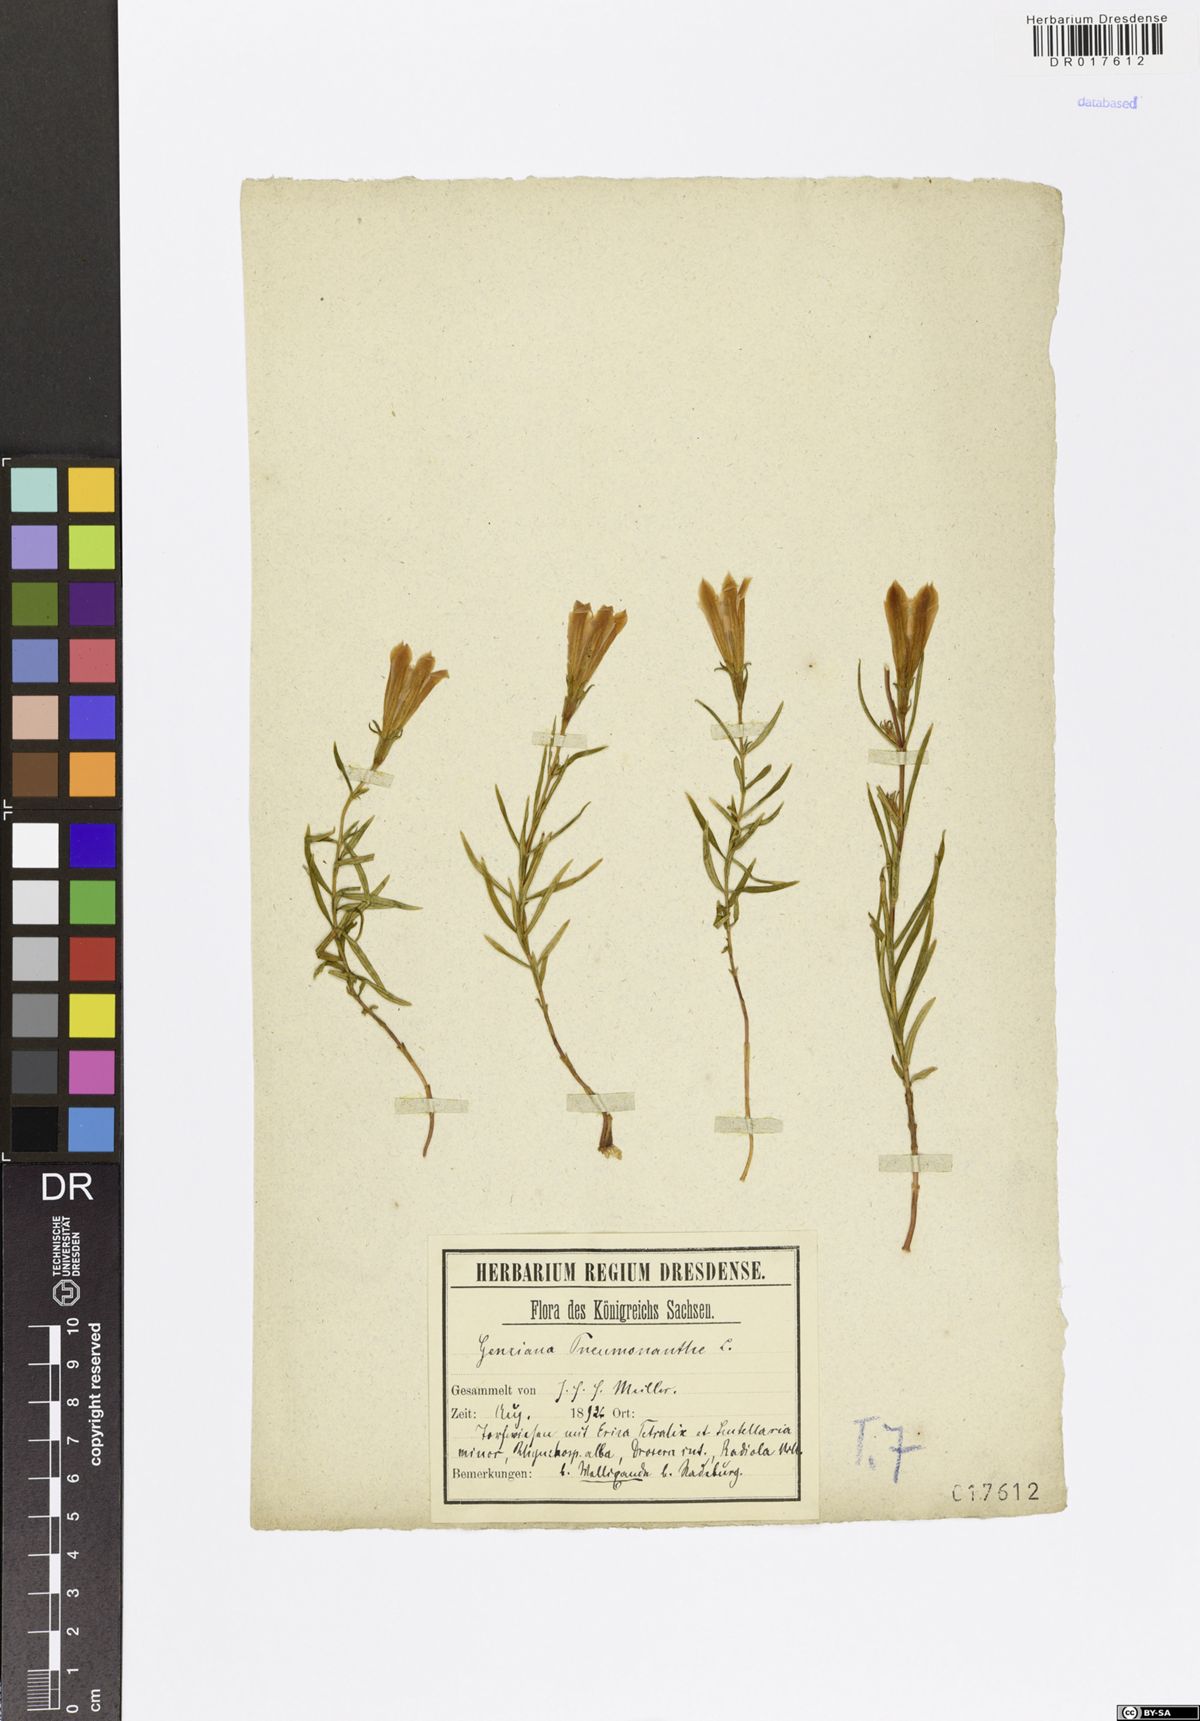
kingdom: Plantae
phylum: Tracheophyta
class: Magnoliopsida
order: Gentianales
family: Gentianaceae
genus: Gentiana
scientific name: Gentiana pneumonanthe
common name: Marsh gentian
